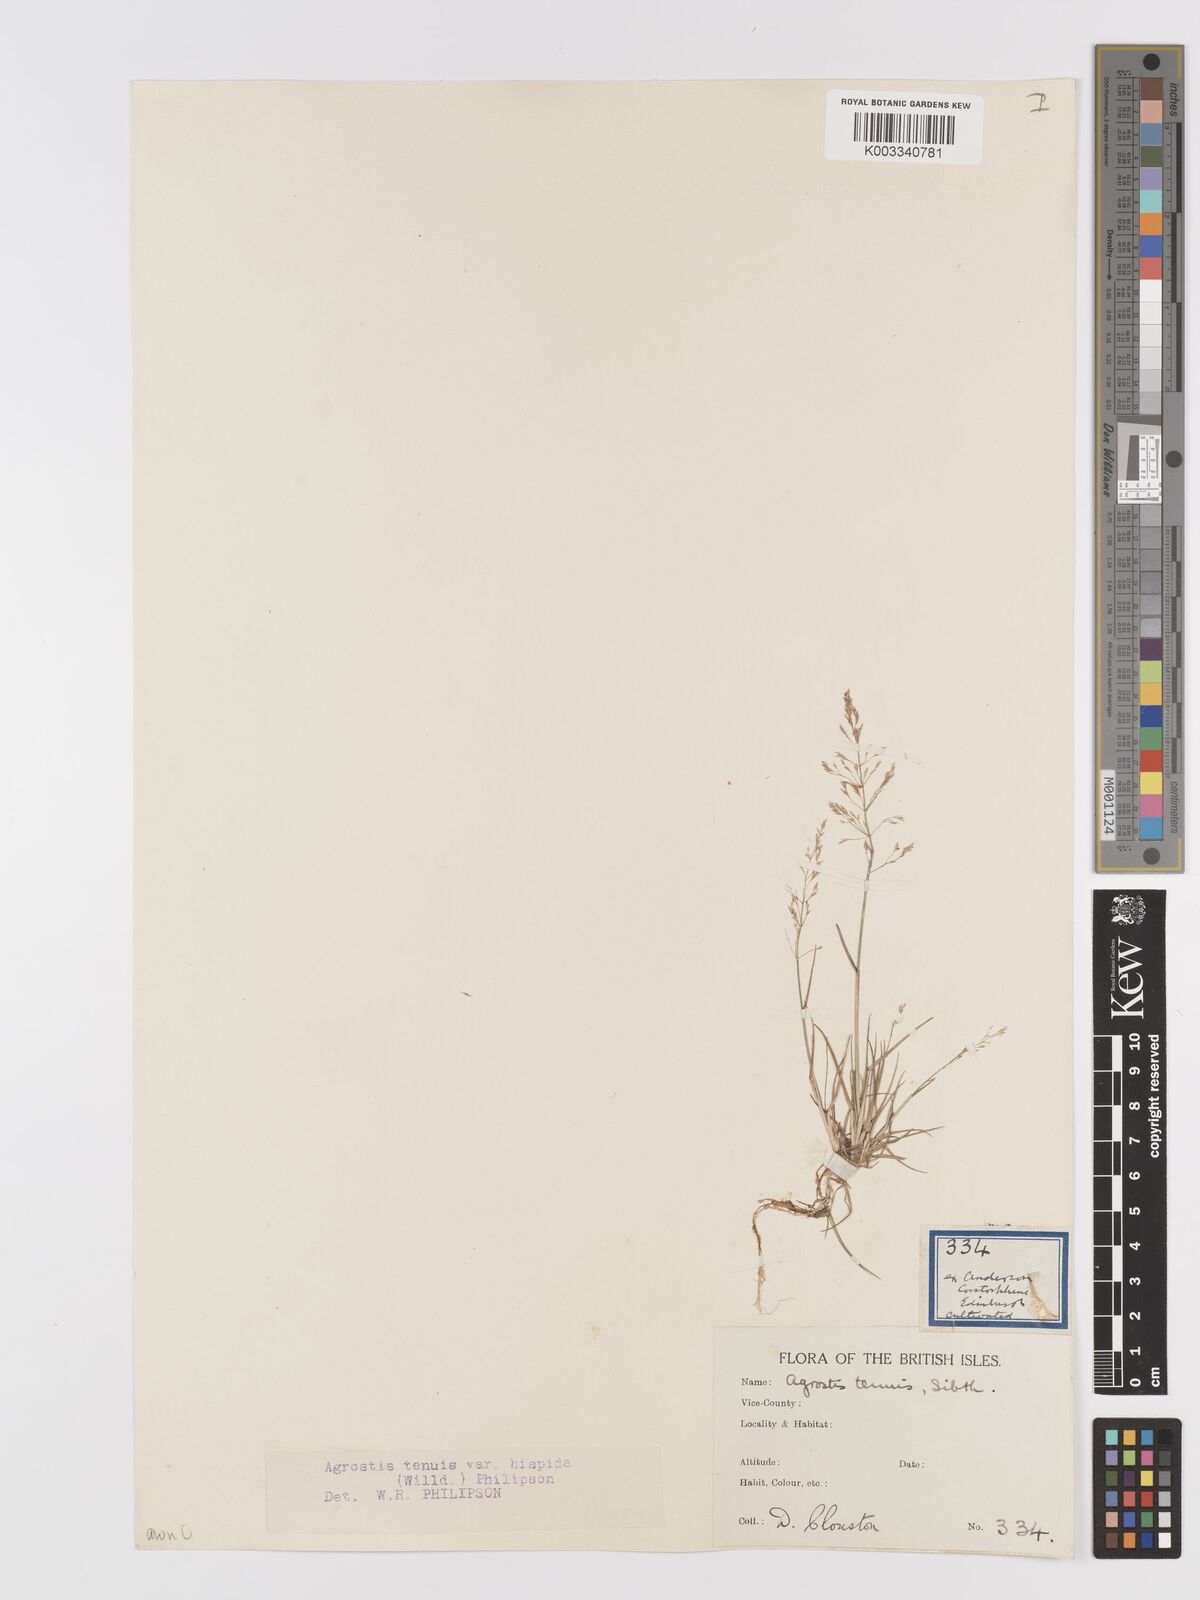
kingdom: Plantae
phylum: Tracheophyta
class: Liliopsida
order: Poales
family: Poaceae
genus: Agrostis
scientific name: Agrostis capillaris
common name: Colonial bentgrass
